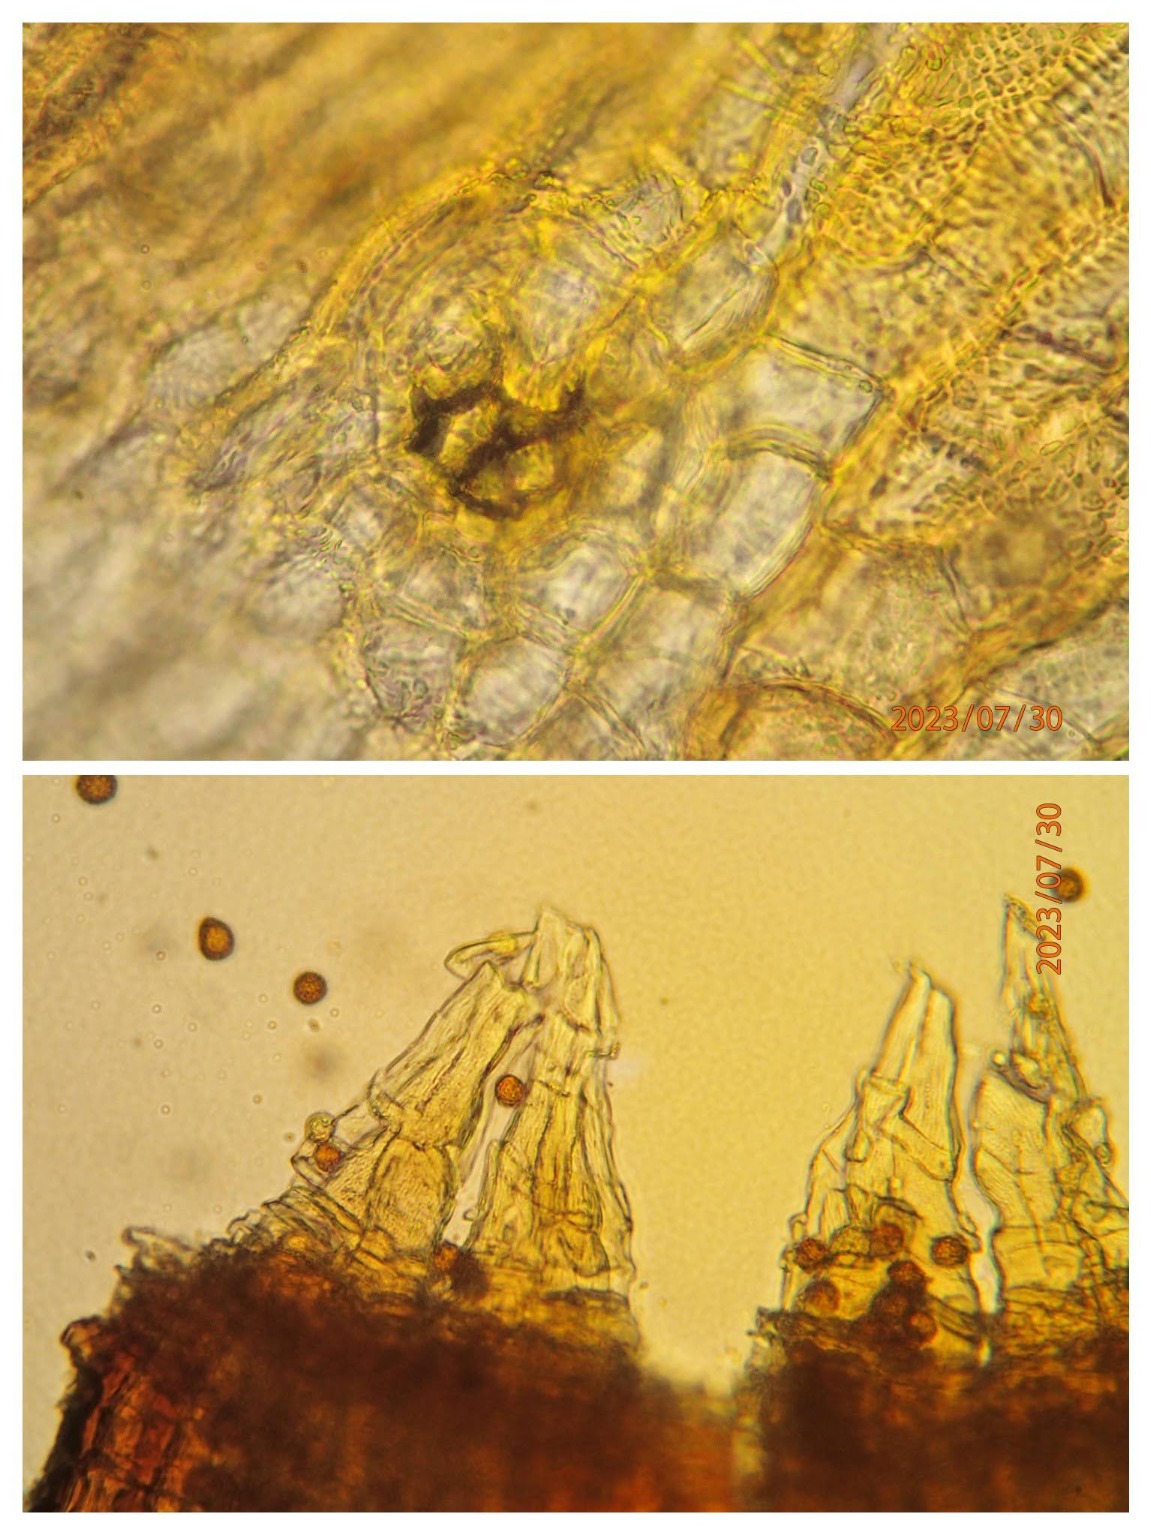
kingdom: Plantae
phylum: Bryophyta
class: Bryopsida
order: Orthotrichales
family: Orthotrichaceae
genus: Orthotrichum
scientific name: Orthotrichum anomalum
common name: Mørk furehætte
